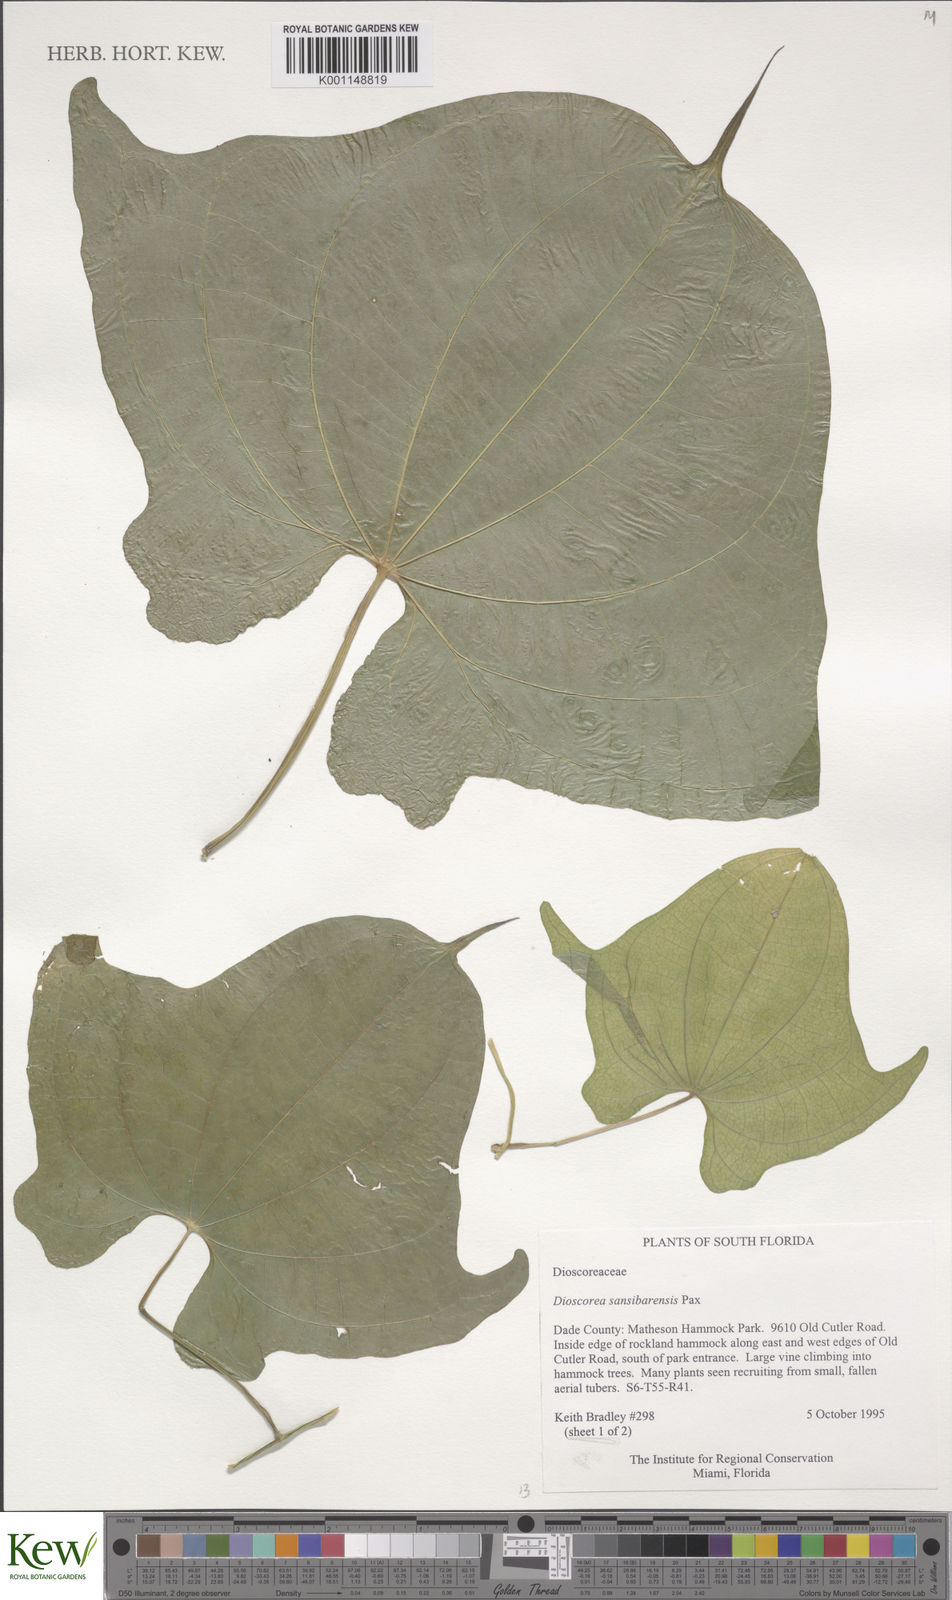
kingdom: Plantae
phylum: Tracheophyta
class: Liliopsida
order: Dioscoreales
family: Dioscoreaceae
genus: Dioscorea
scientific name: Dioscorea sansibarensis
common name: Zanzibar yam
